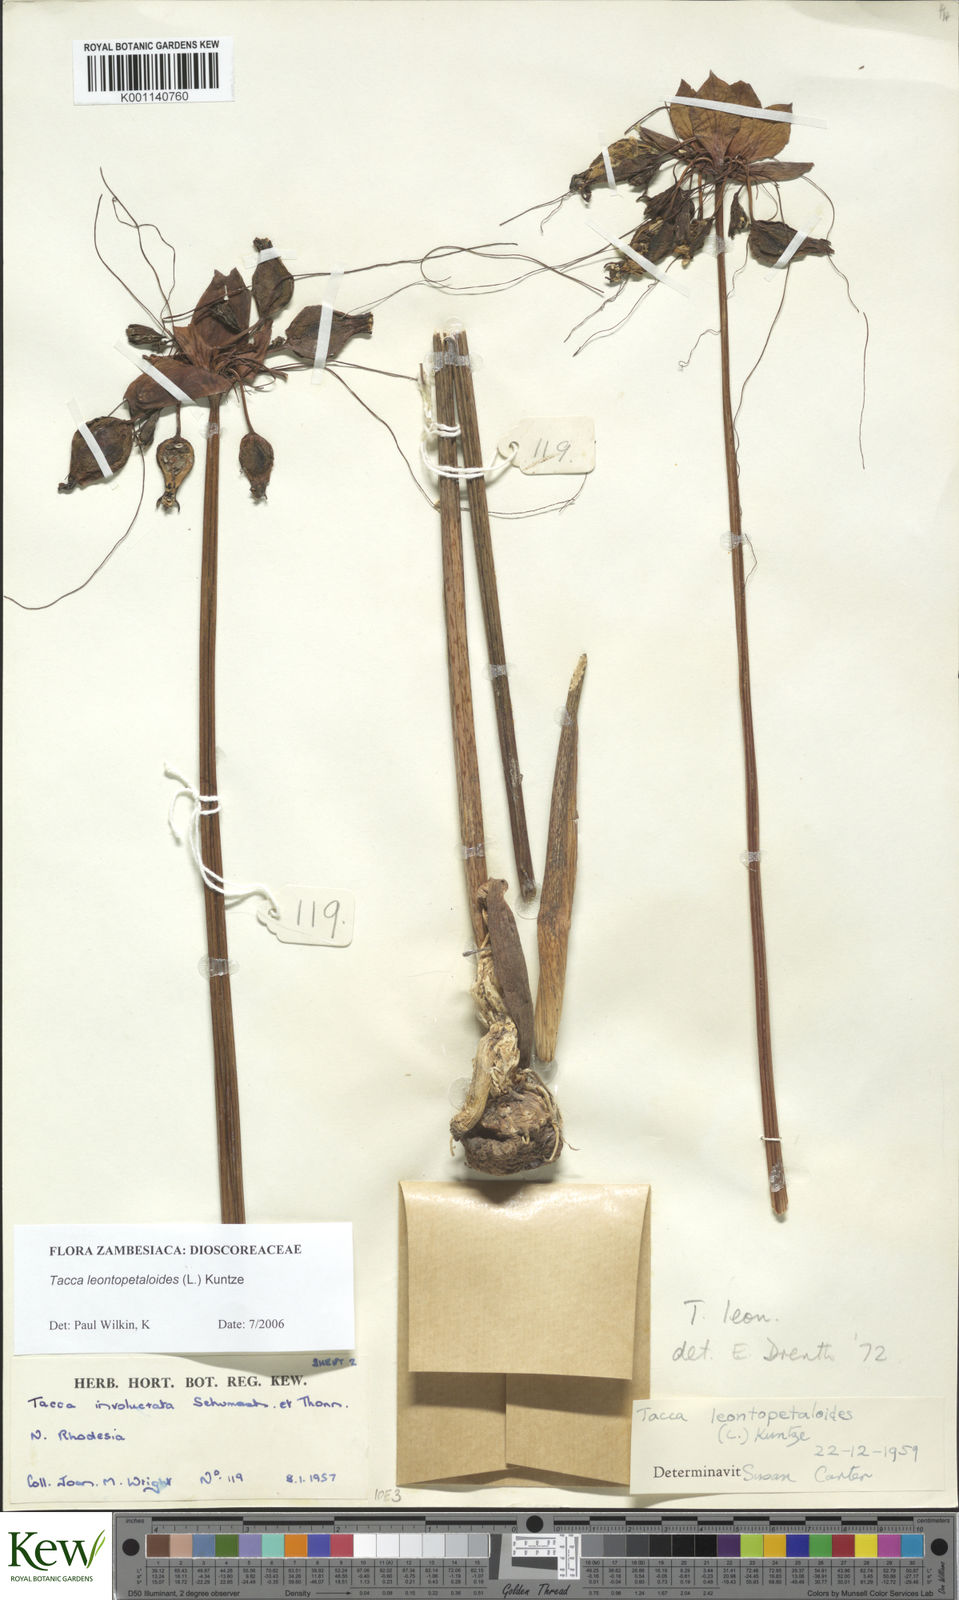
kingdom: Plantae
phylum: Tracheophyta
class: Liliopsida
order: Dioscoreales
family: Dioscoreaceae
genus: Tacca
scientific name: Tacca leontopetaloides
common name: Arrowroot
